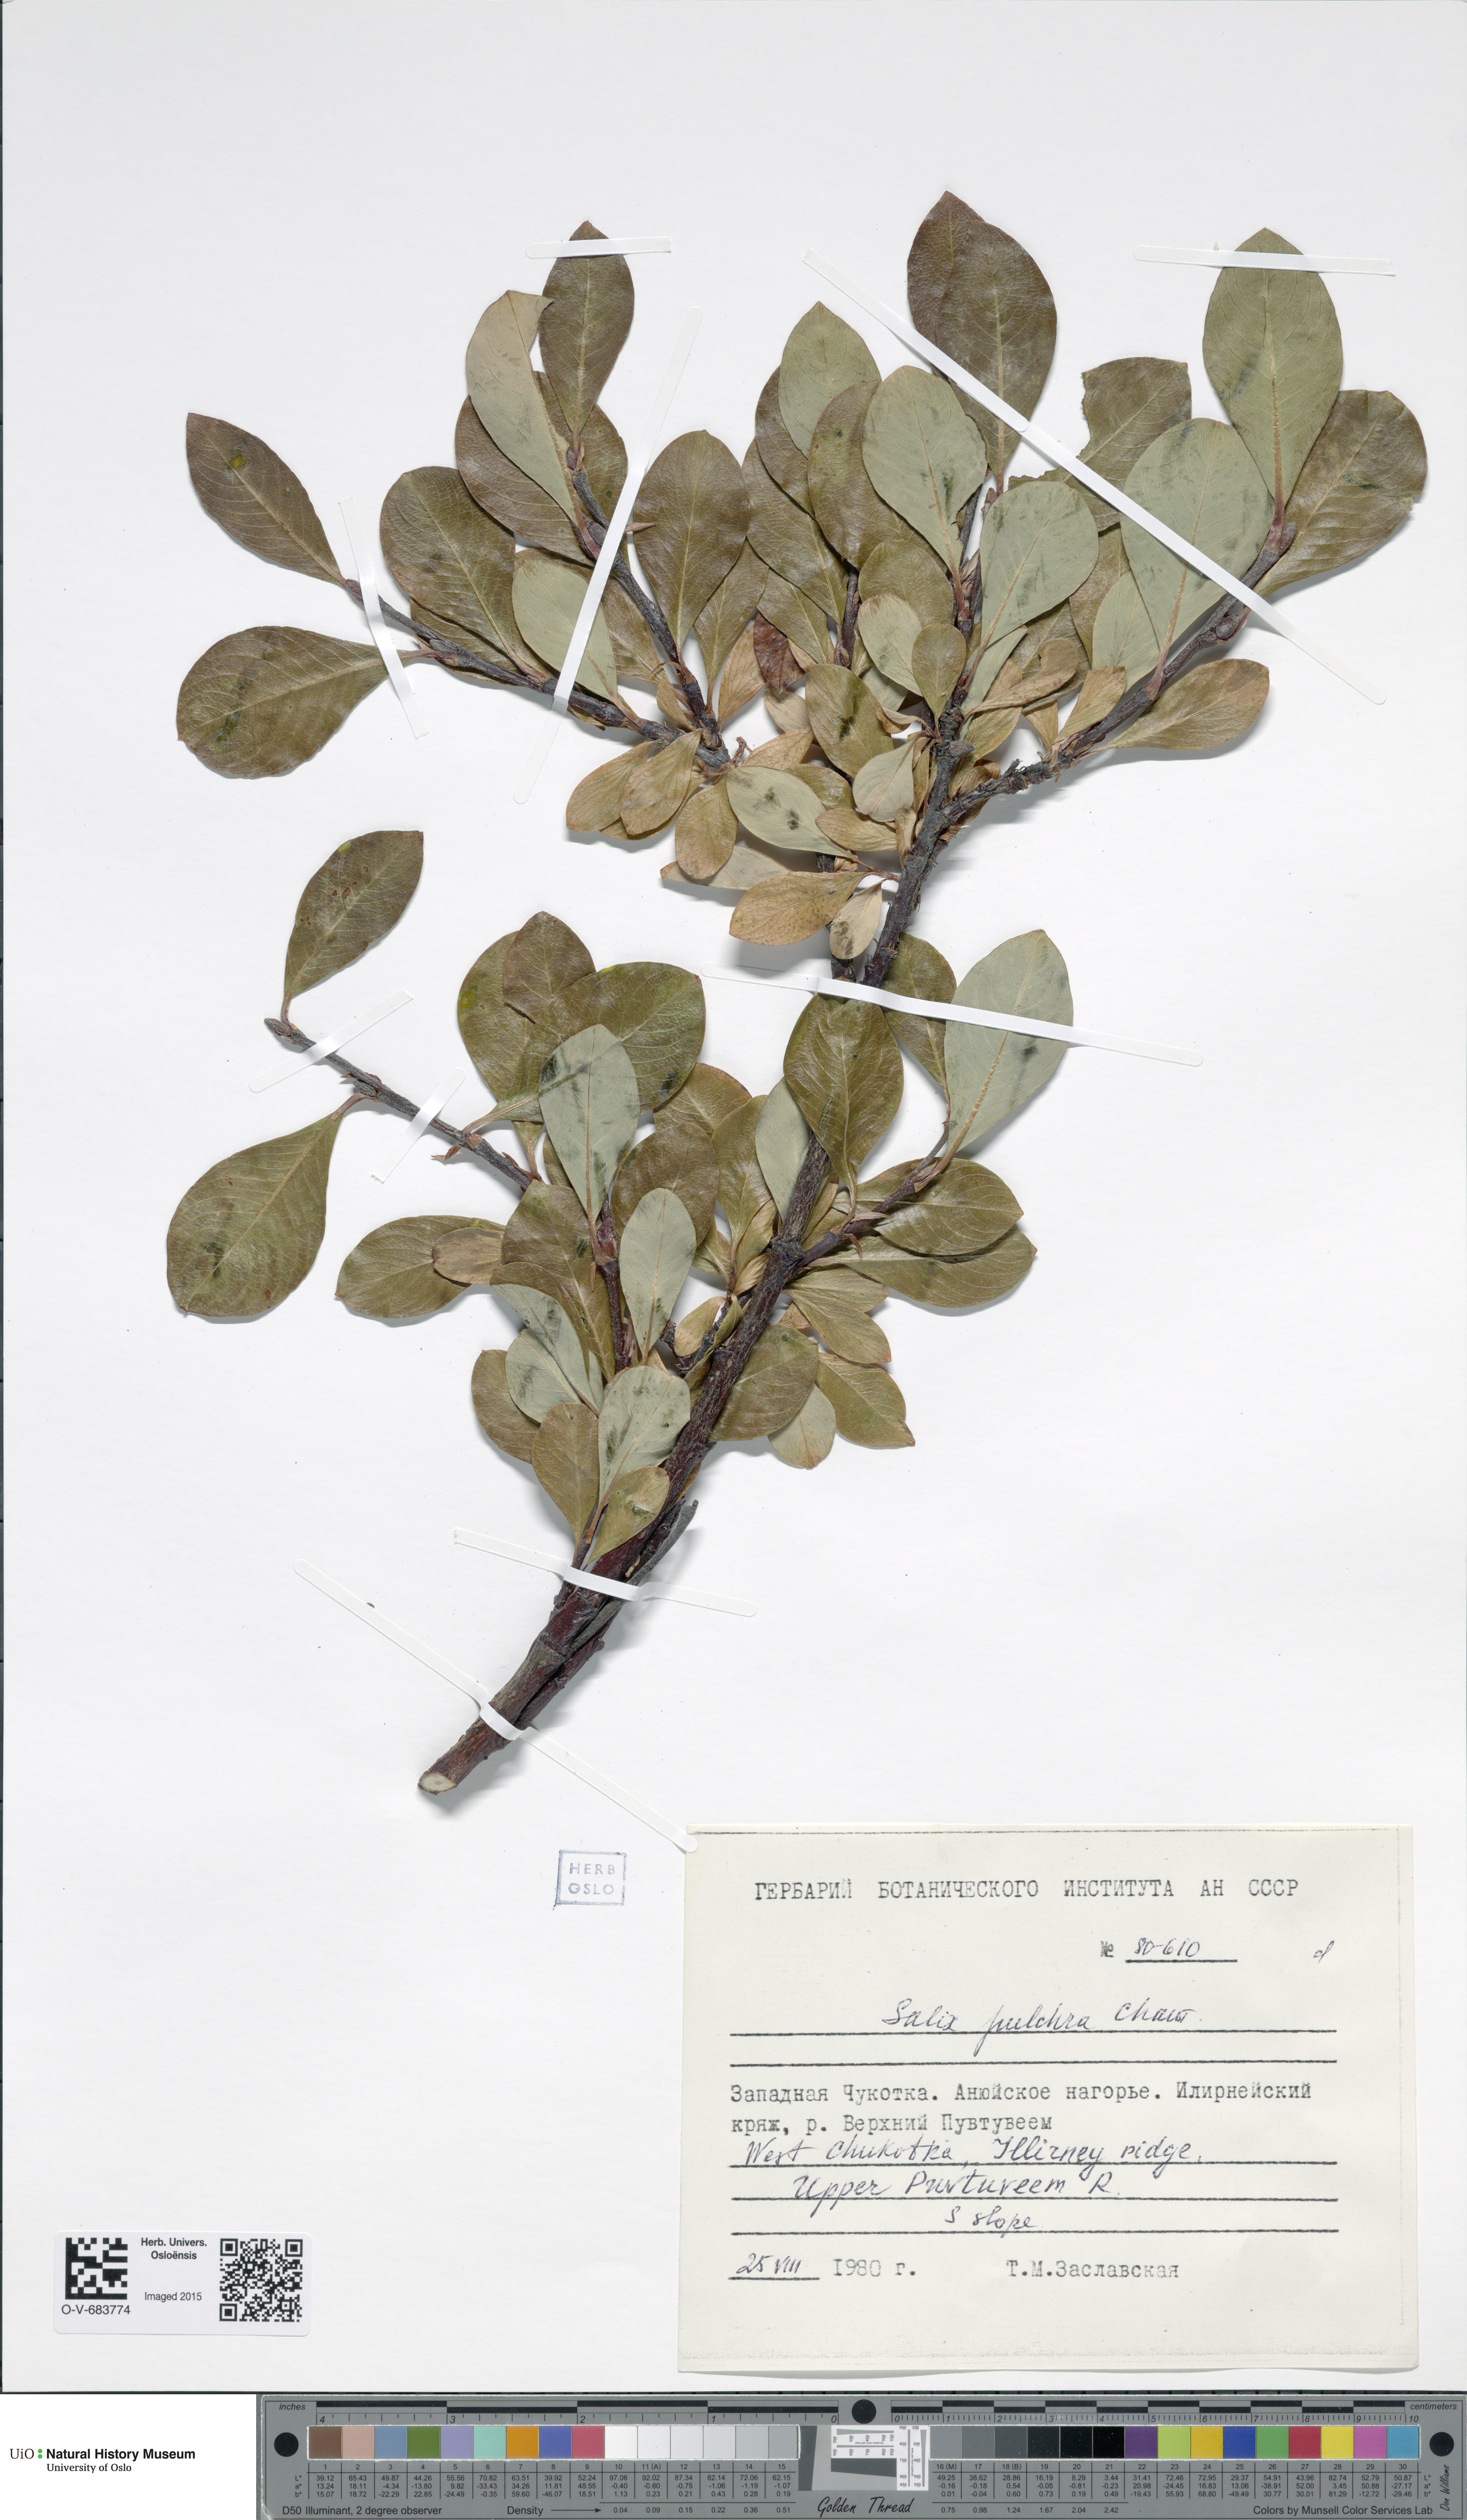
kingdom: Plantae
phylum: Tracheophyta
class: Magnoliopsida
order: Malpighiales
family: Salicaceae
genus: Salix
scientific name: Salix pulchra
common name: Diamond-leaved willow
